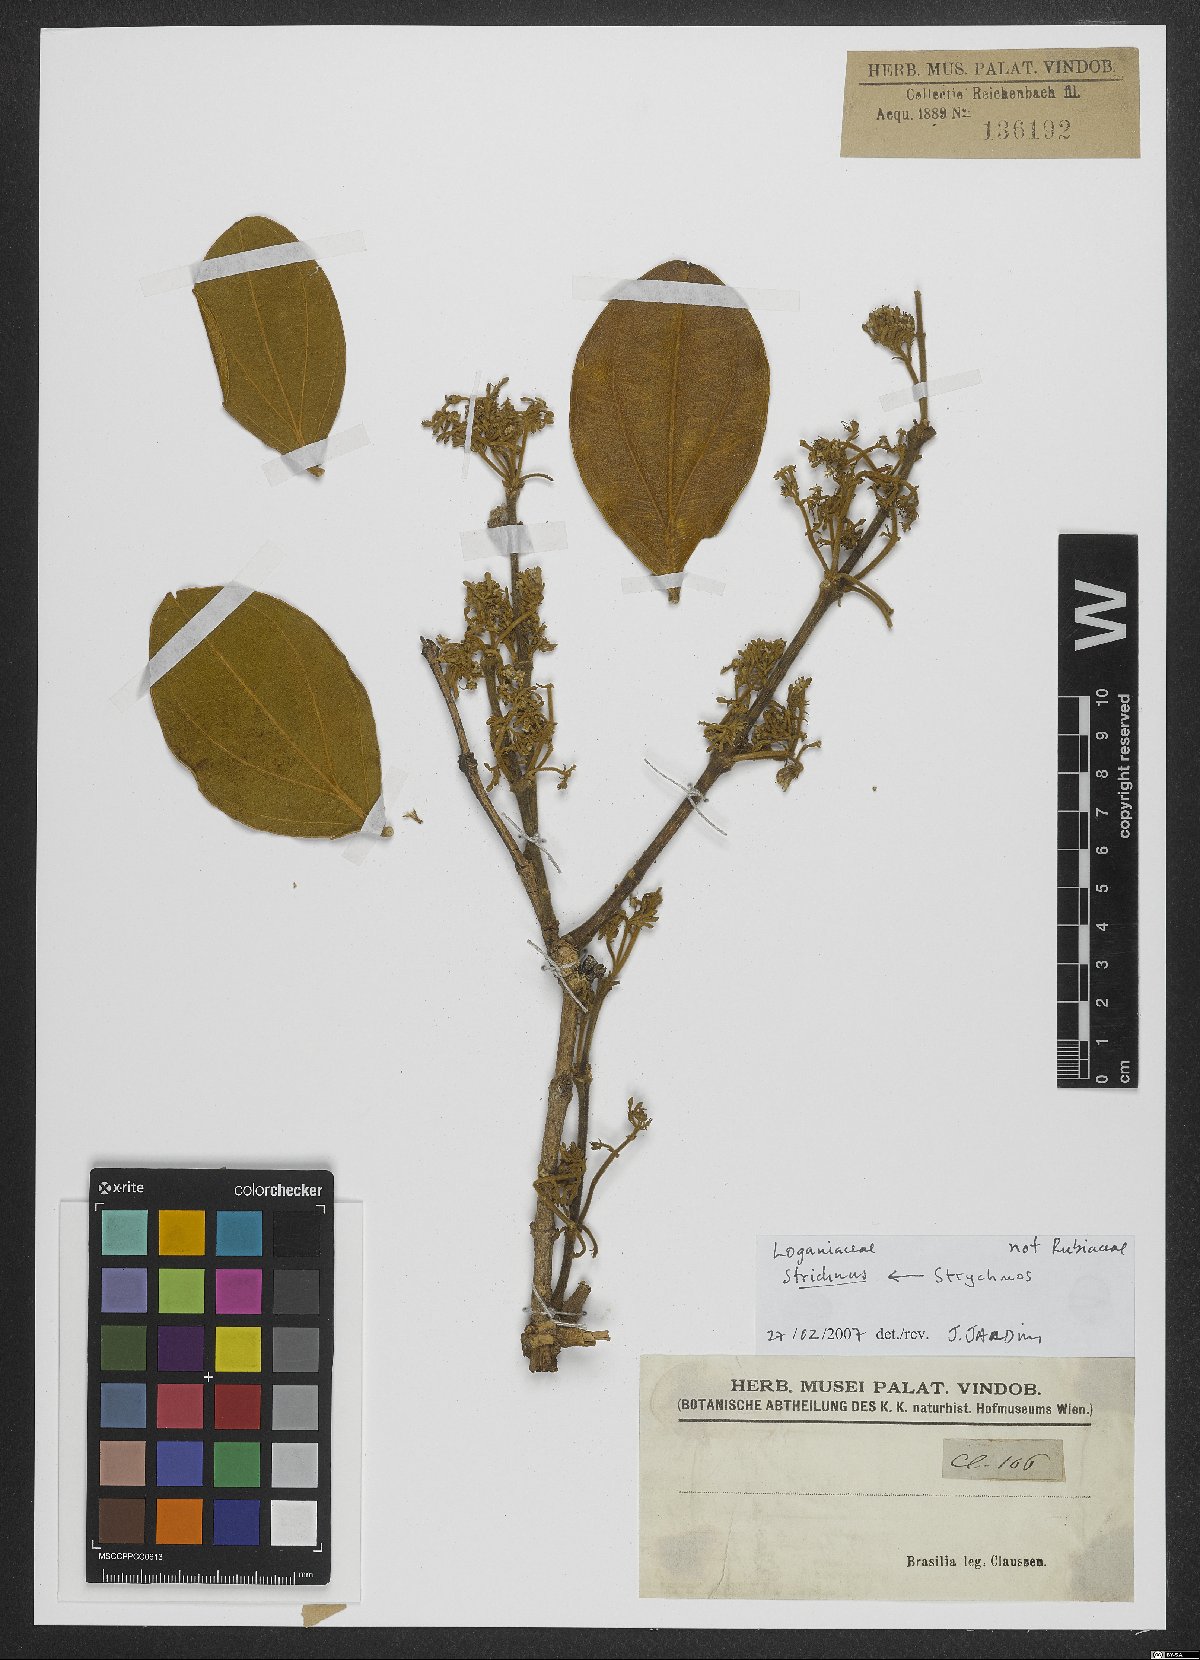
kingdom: Plantae
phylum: Tracheophyta
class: Magnoliopsida
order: Gentianales
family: Loganiaceae
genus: Strychnos
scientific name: Strychnos
